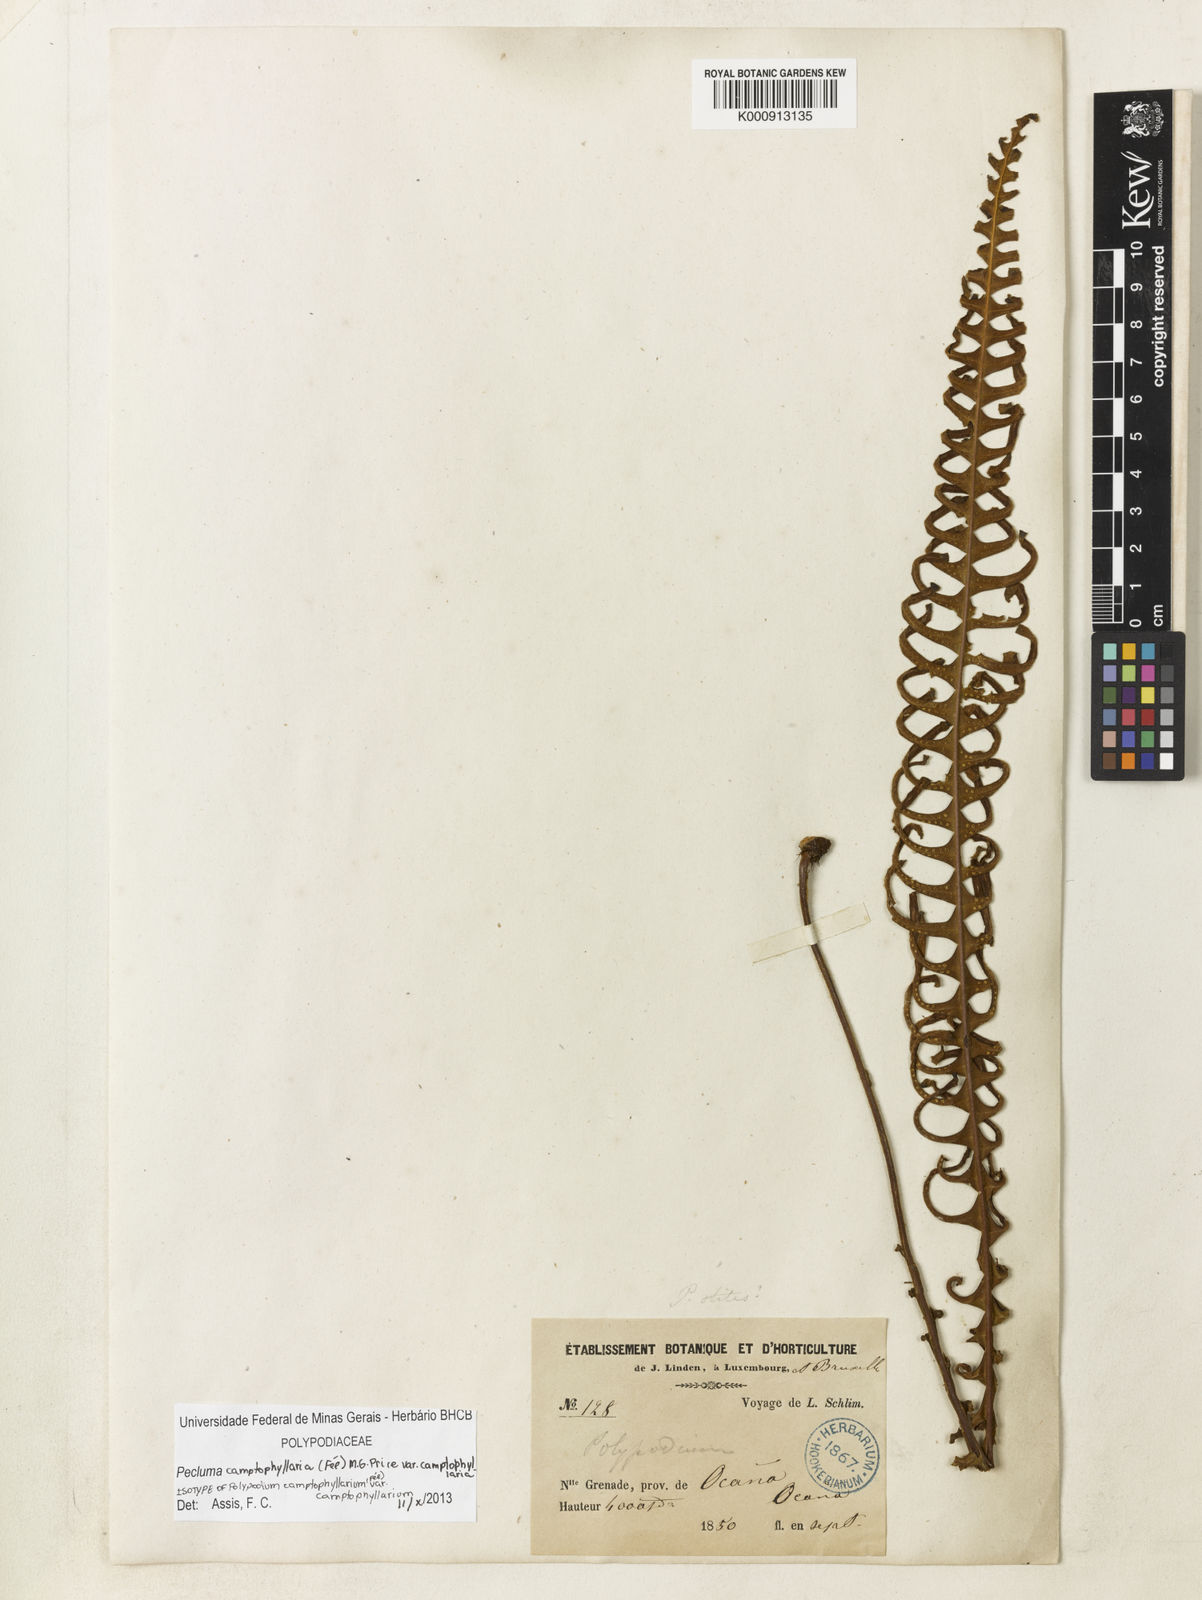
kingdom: Plantae
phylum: Tracheophyta
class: Polypodiopsida
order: Polypodiales
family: Polypodiaceae
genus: Pecluma
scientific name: Pecluma
